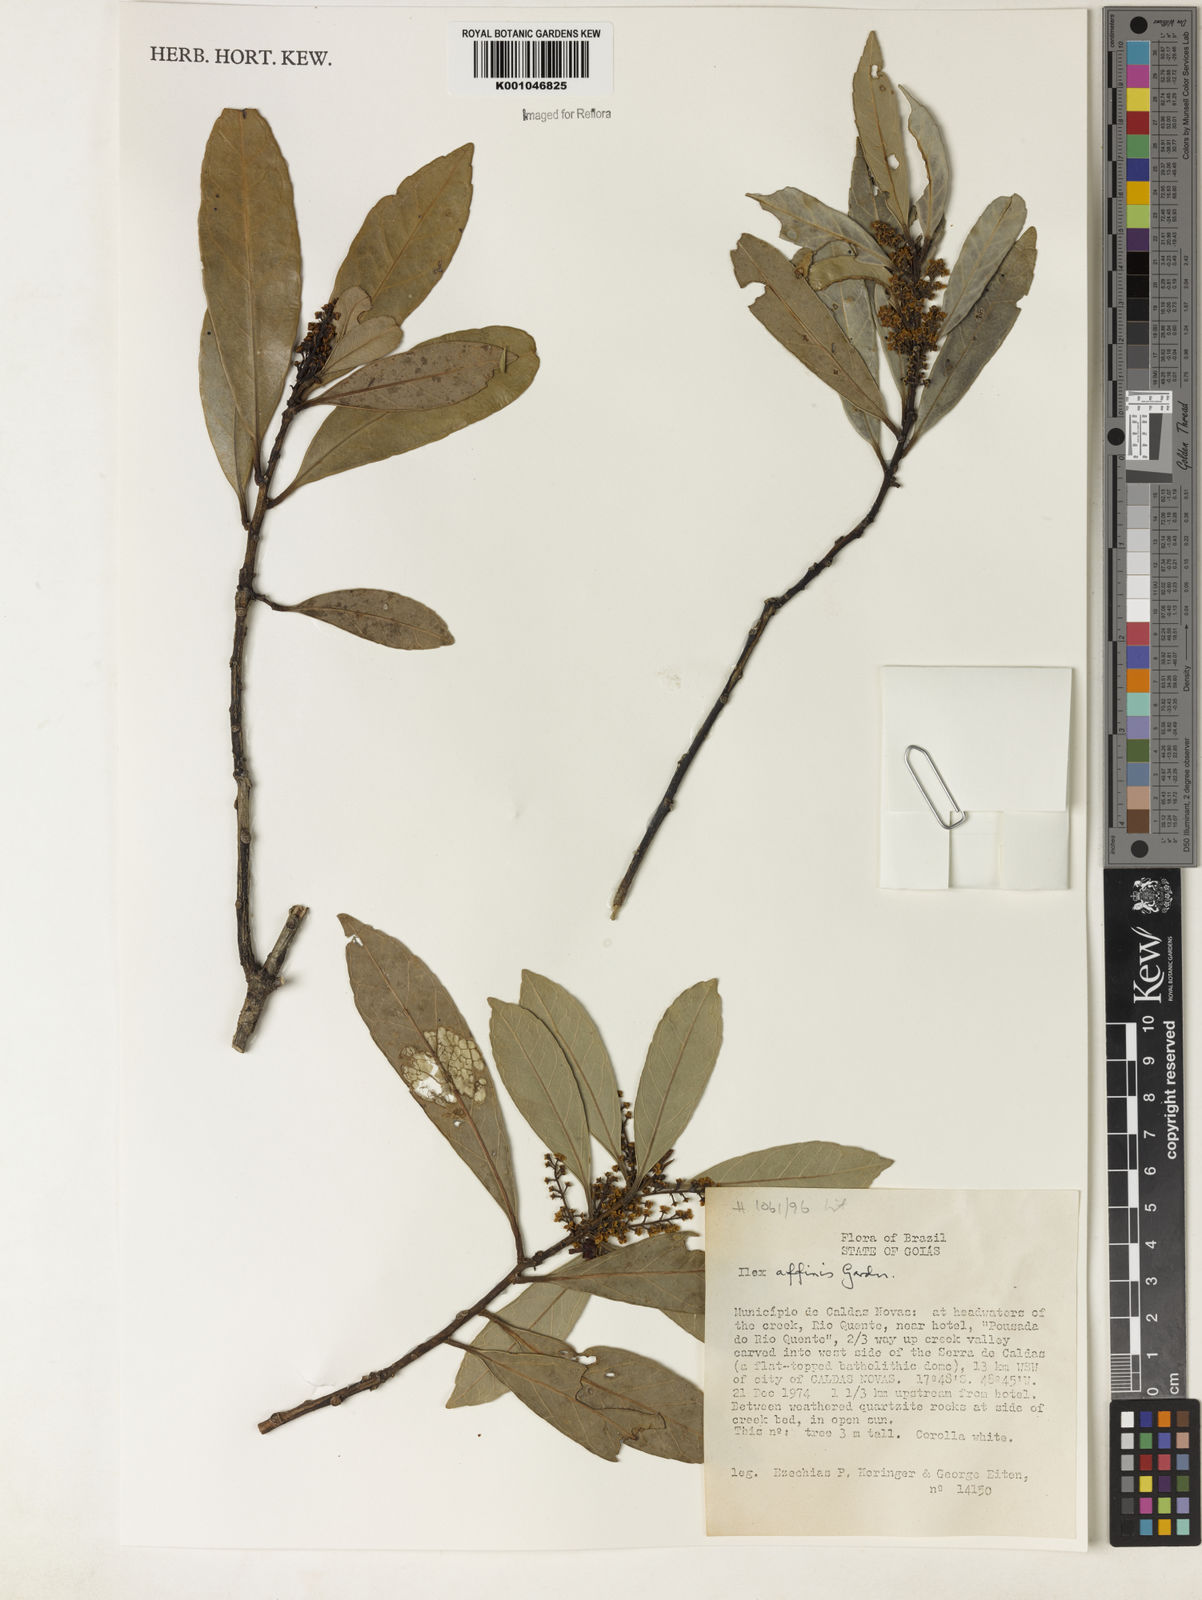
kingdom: Plantae
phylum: Tracheophyta
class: Magnoliopsida
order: Aquifoliales
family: Aquifoliaceae
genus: Ilex
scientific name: Ilex affinis
